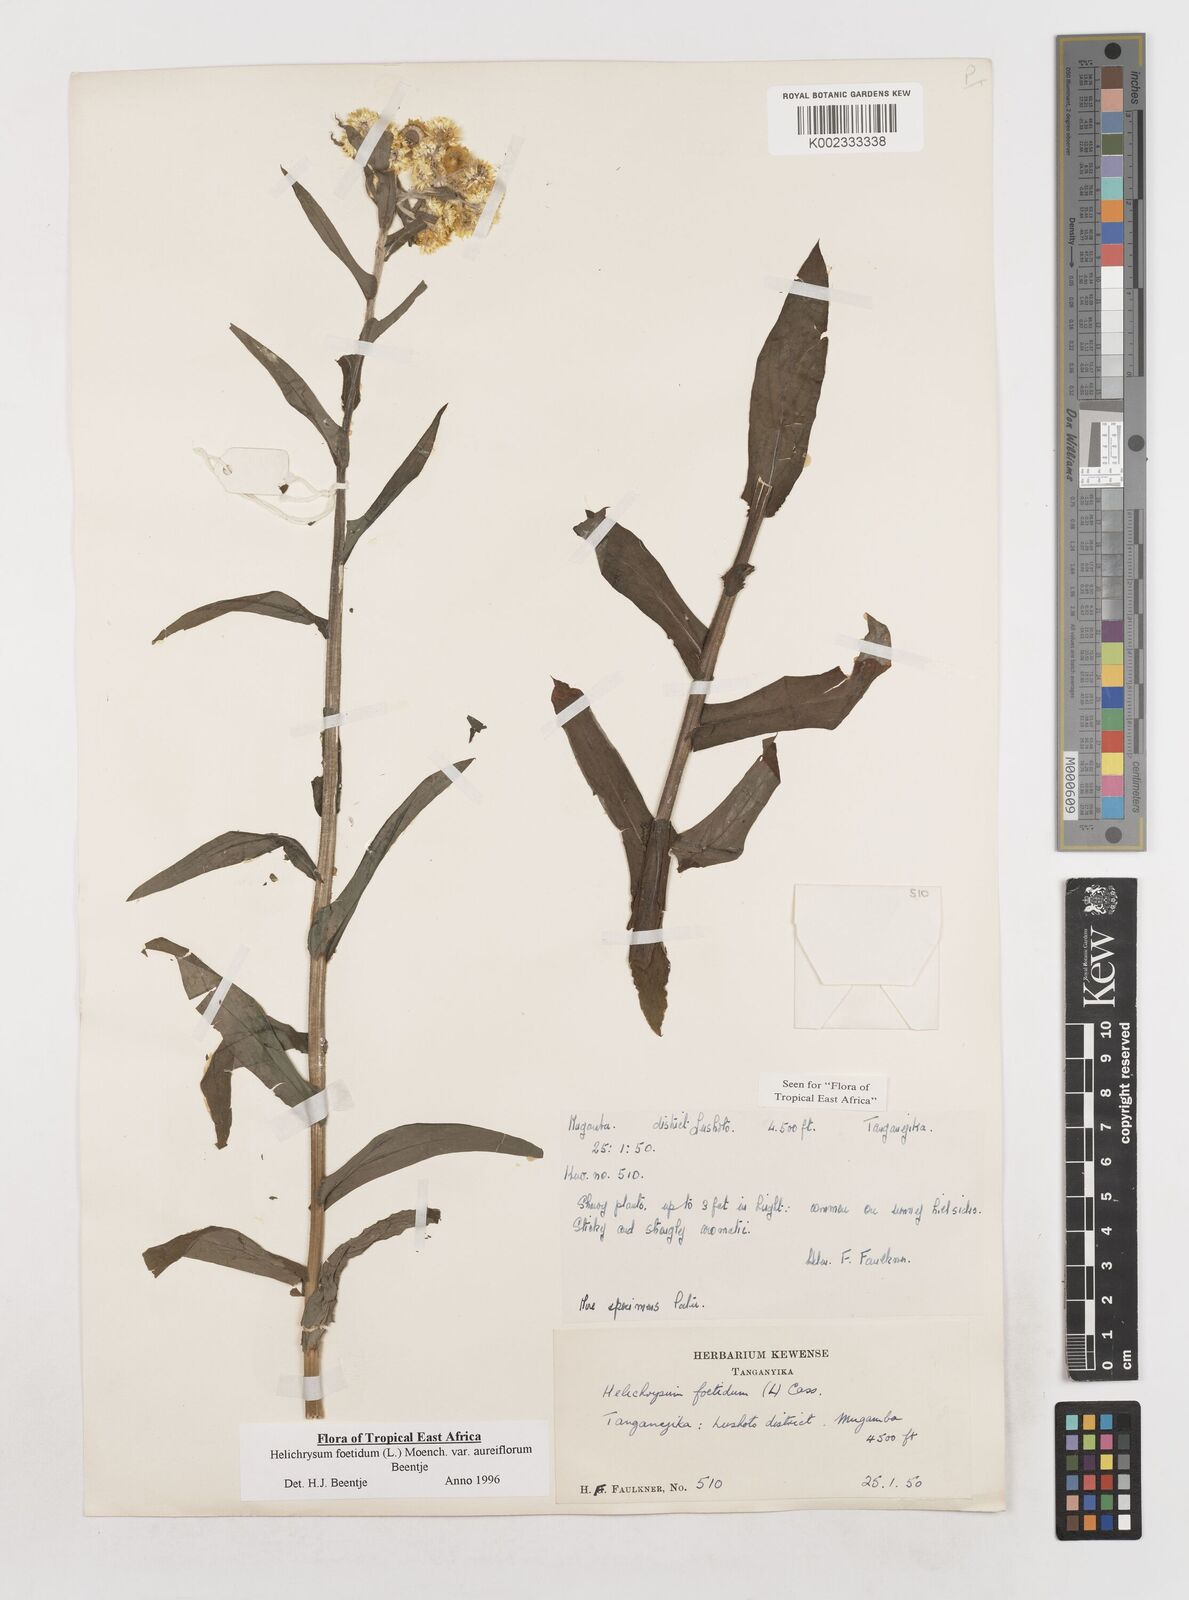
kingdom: Plantae
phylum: Tracheophyta
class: Magnoliopsida
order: Asterales
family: Asteraceae
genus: Helichrysum
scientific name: Helichrysum foetidum
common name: Stinking everlasting
